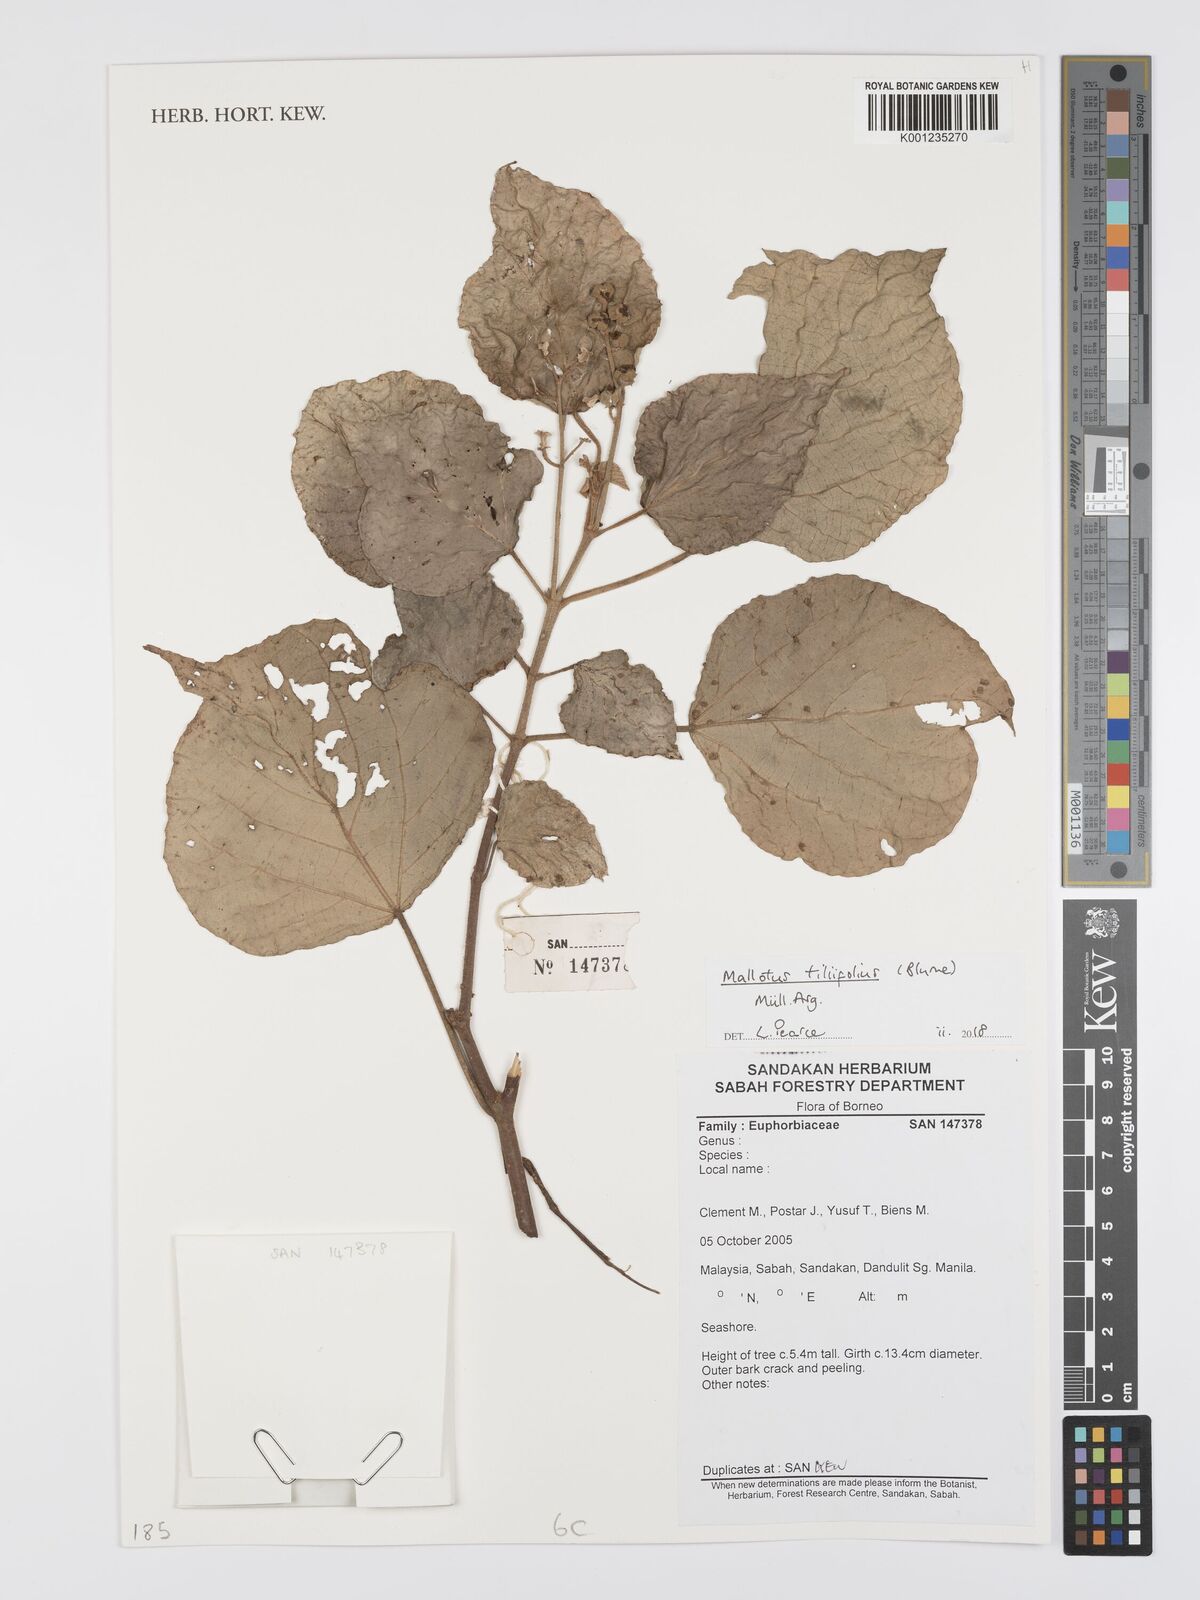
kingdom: Plantae
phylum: Tracheophyta
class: Magnoliopsida
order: Malpighiales
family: Euphorbiaceae
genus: Mallotus
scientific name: Mallotus tiliifolius
